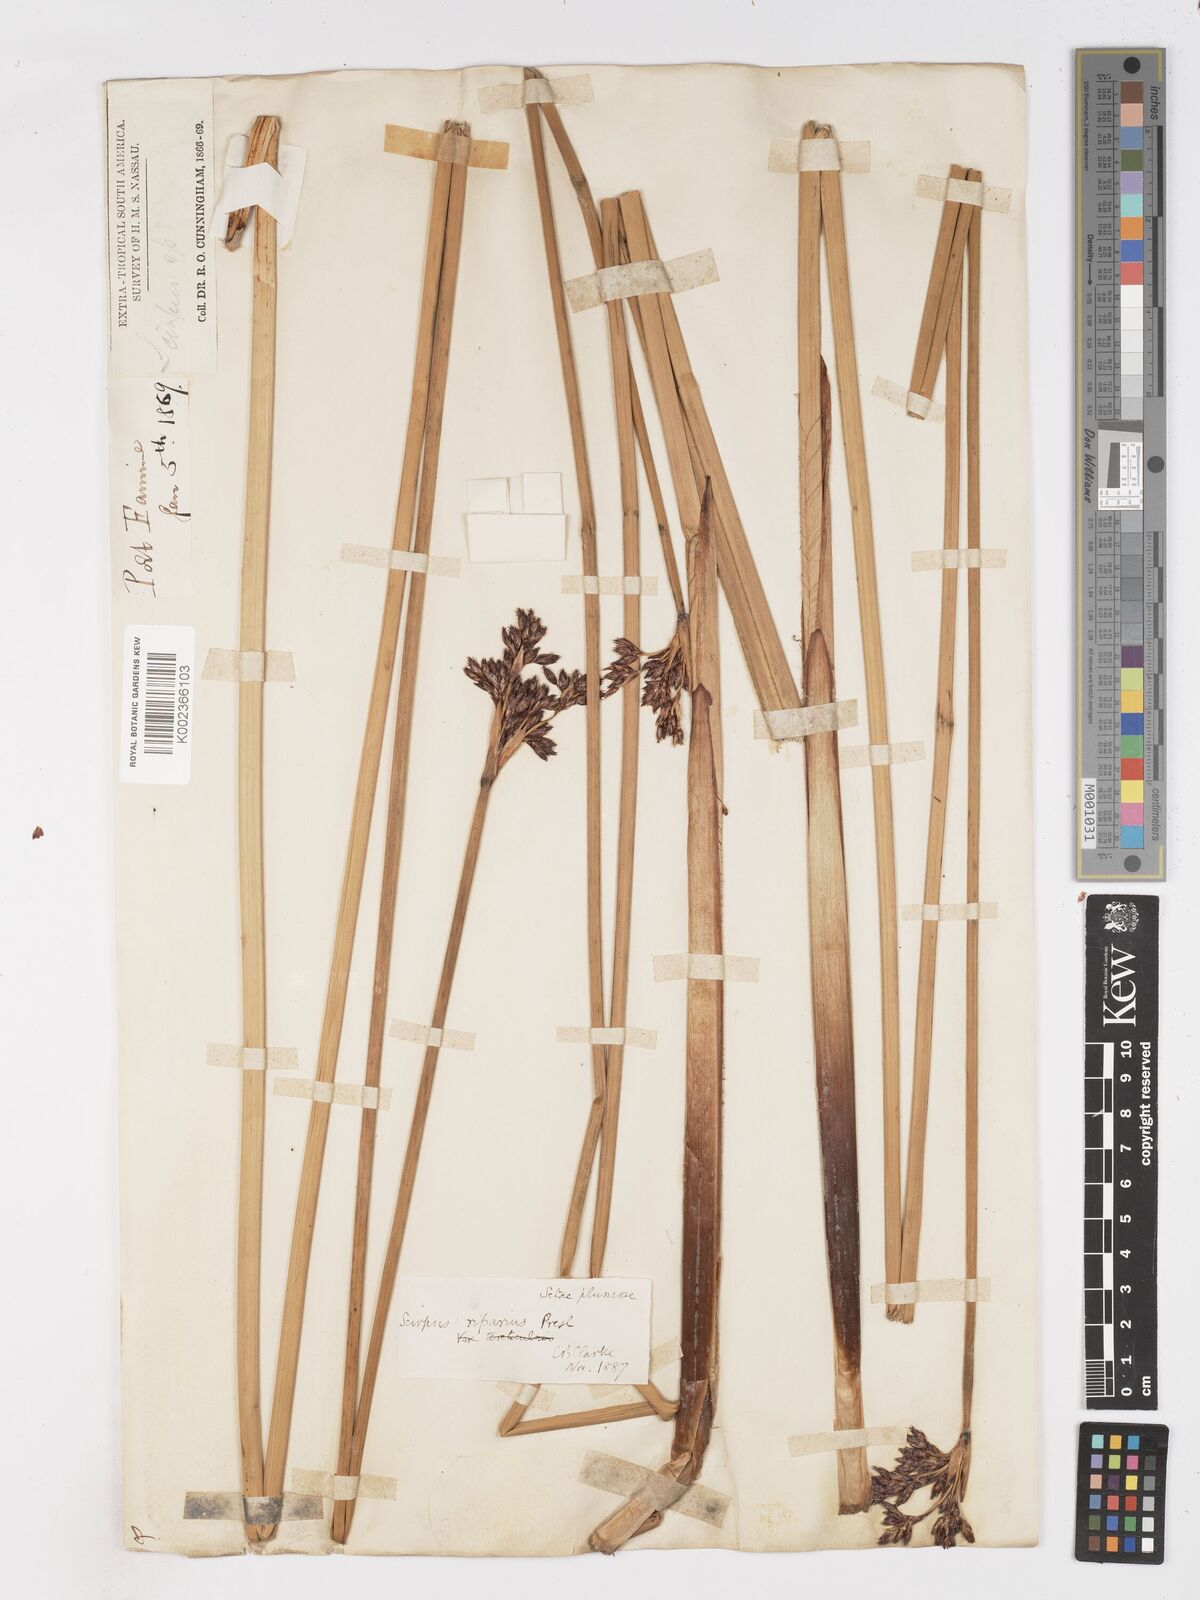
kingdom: Plantae
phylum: Tracheophyta
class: Liliopsida
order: Poales
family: Cyperaceae
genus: Schoenoplectus
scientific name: Schoenoplectus californicus
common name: California bulrush
